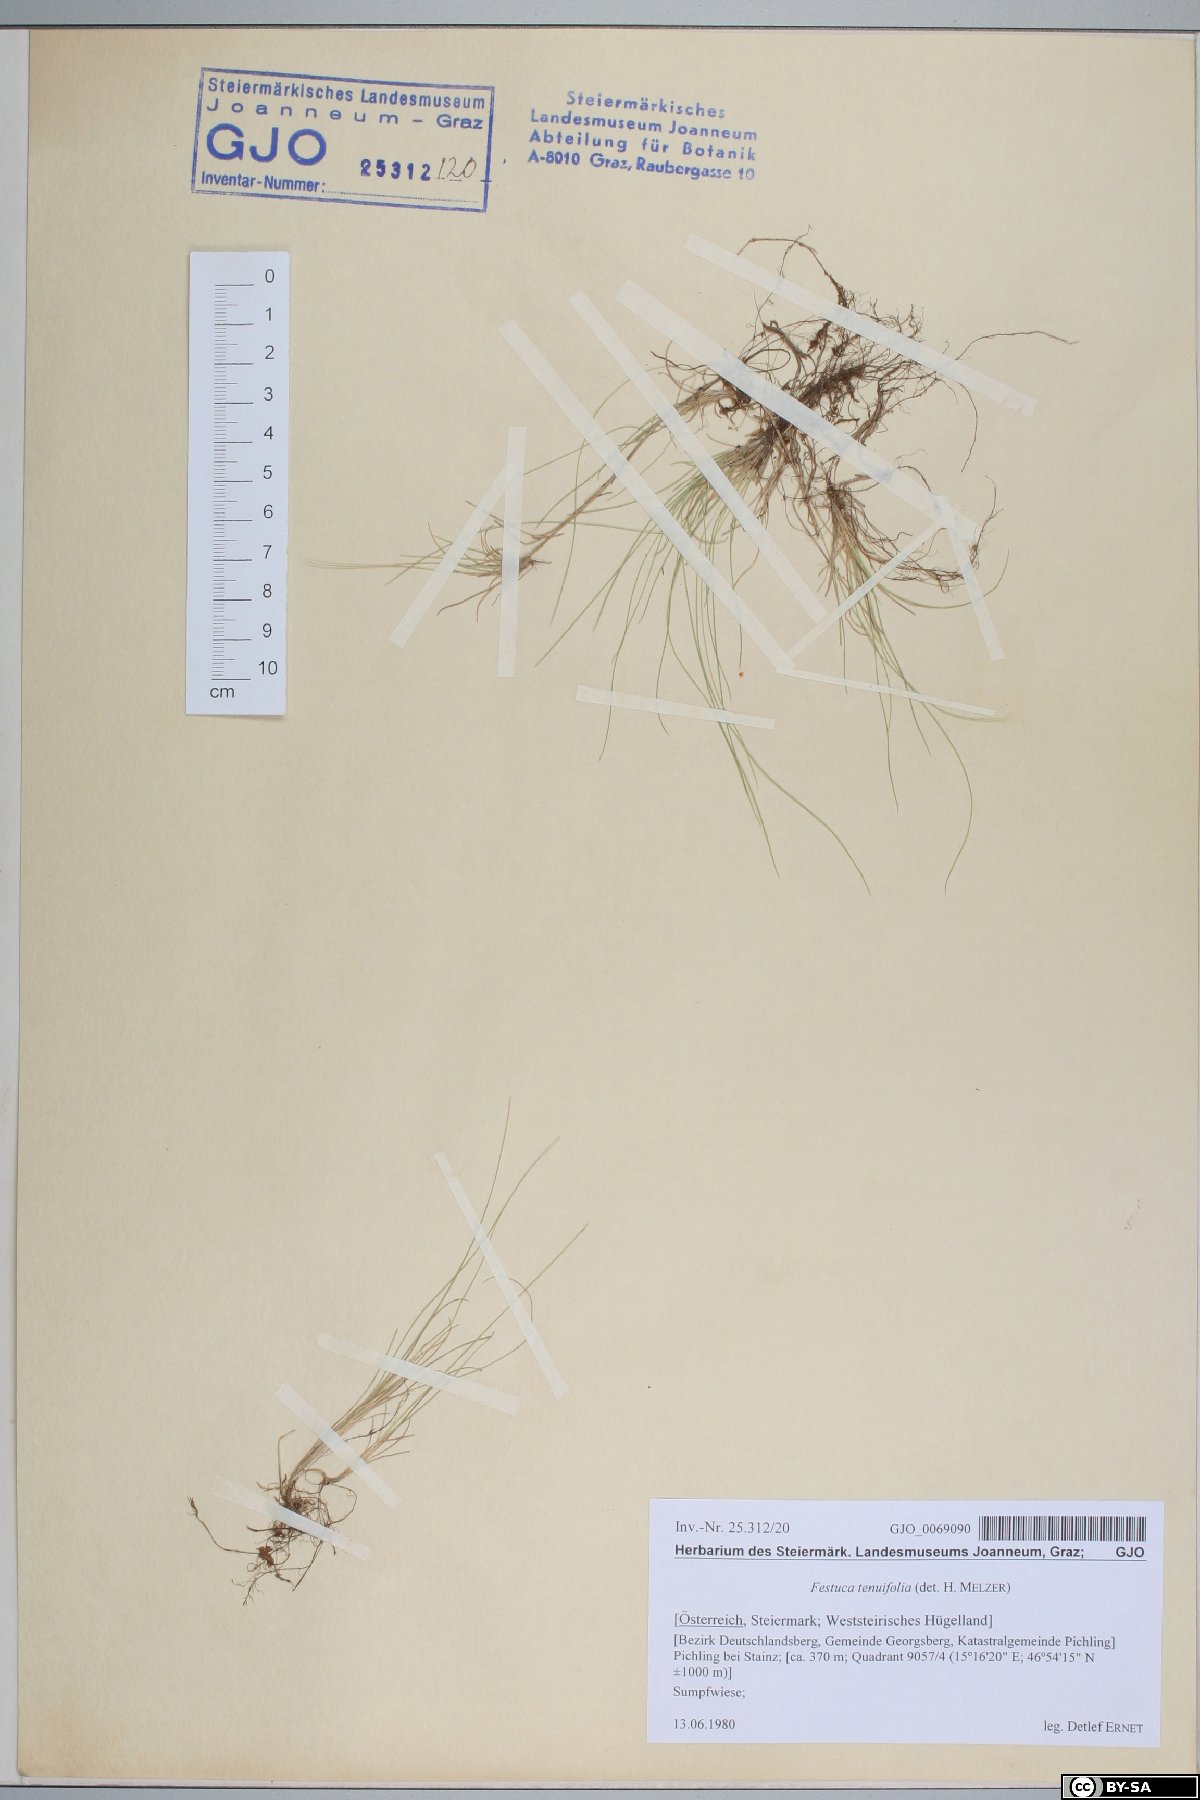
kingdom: Plantae
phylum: Tracheophyta
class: Liliopsida
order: Poales
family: Poaceae
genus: Festuca
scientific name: Festuca filiformis
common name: Fine-leaved sheep's-fescue
